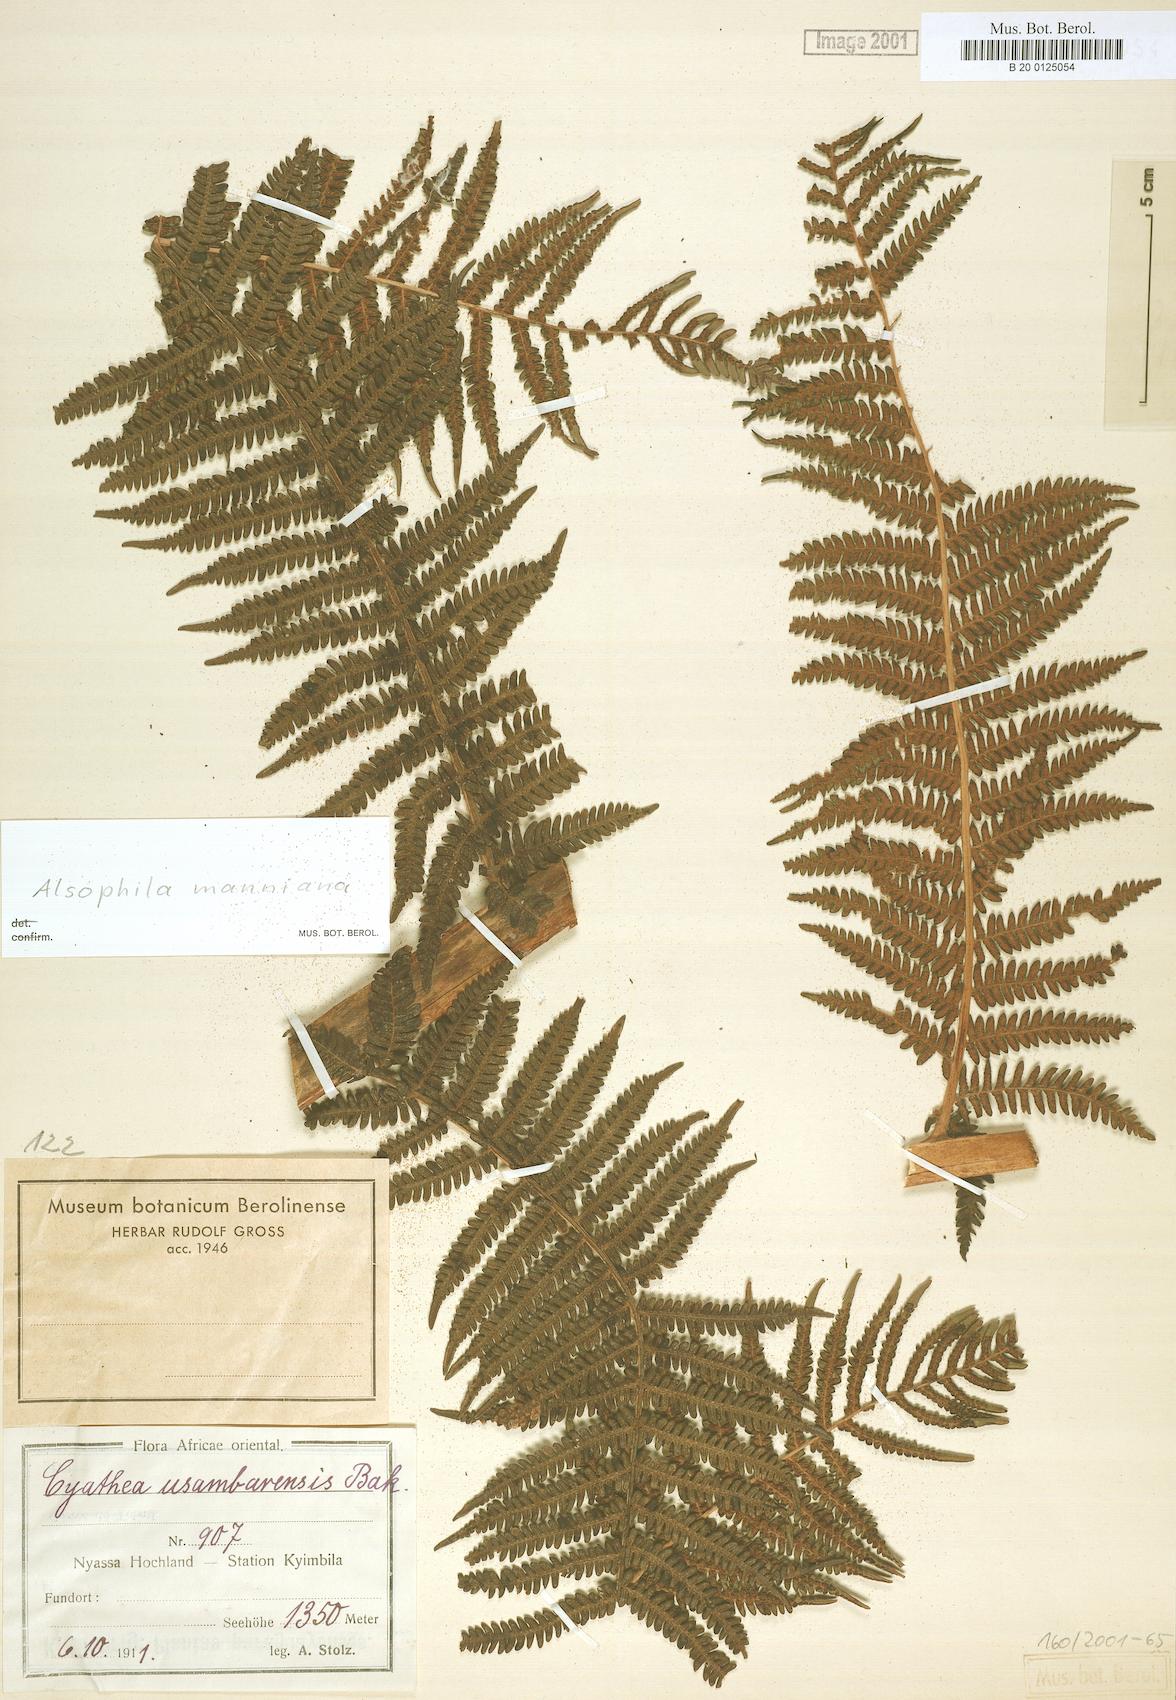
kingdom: Plantae
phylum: Tracheophyta
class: Polypodiopsida
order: Cyatheales
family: Cyatheaceae
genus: Alsophila
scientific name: Alsophila manniana
